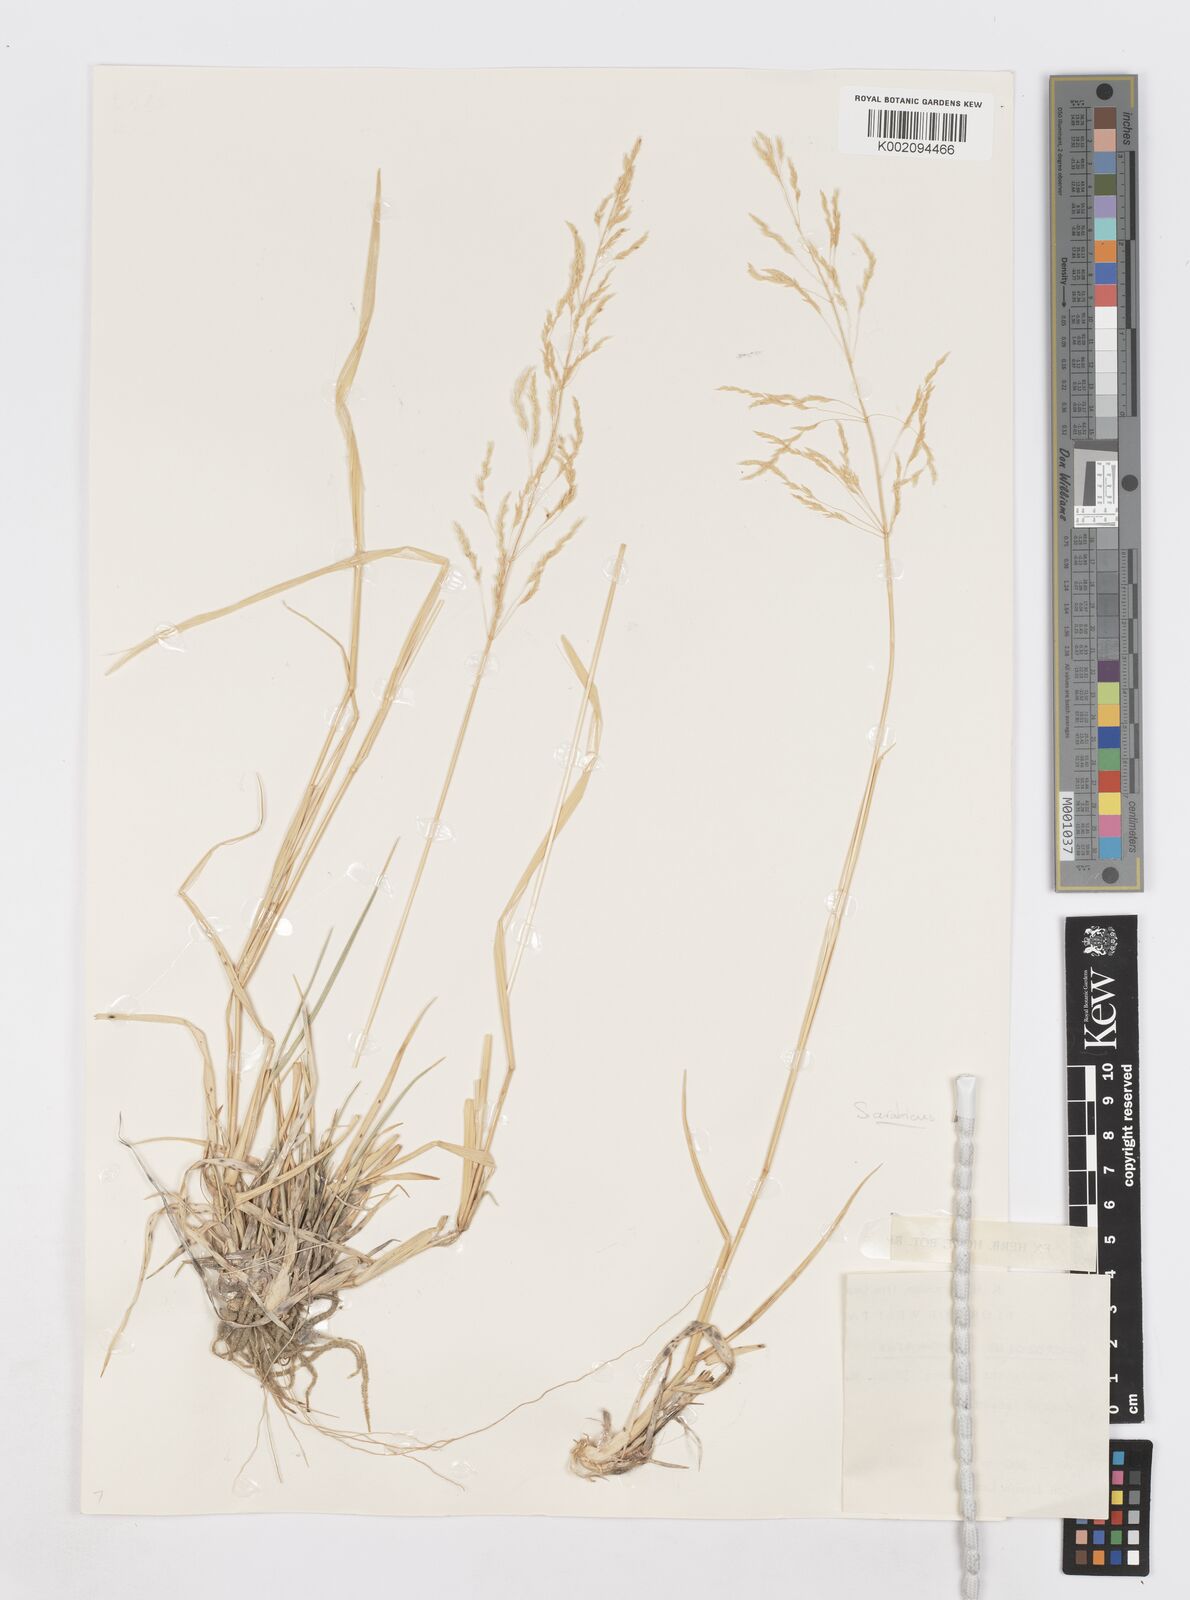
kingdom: Plantae
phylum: Tracheophyta
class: Liliopsida
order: Poales
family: Poaceae
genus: Sporobolus
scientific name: Sporobolus ioclados
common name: Pan dropseed
